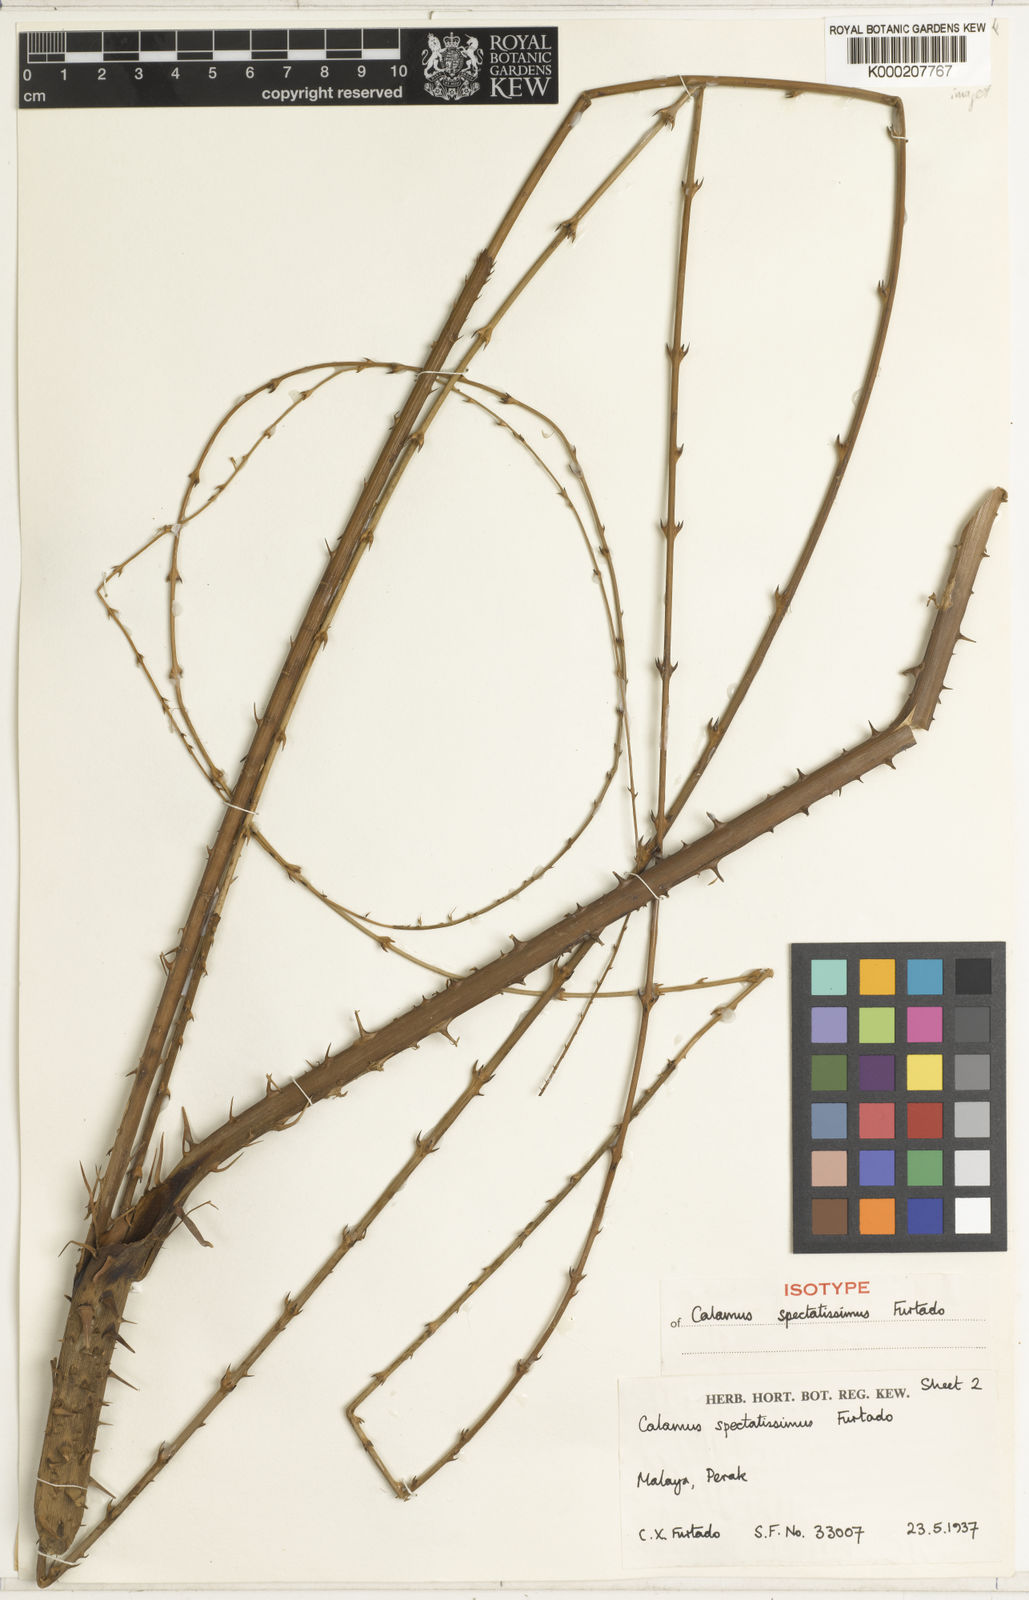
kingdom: Plantae
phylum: Tracheophyta
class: Liliopsida
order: Arecales
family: Arecaceae
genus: Calamus
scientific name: Calamus spectatissimus
